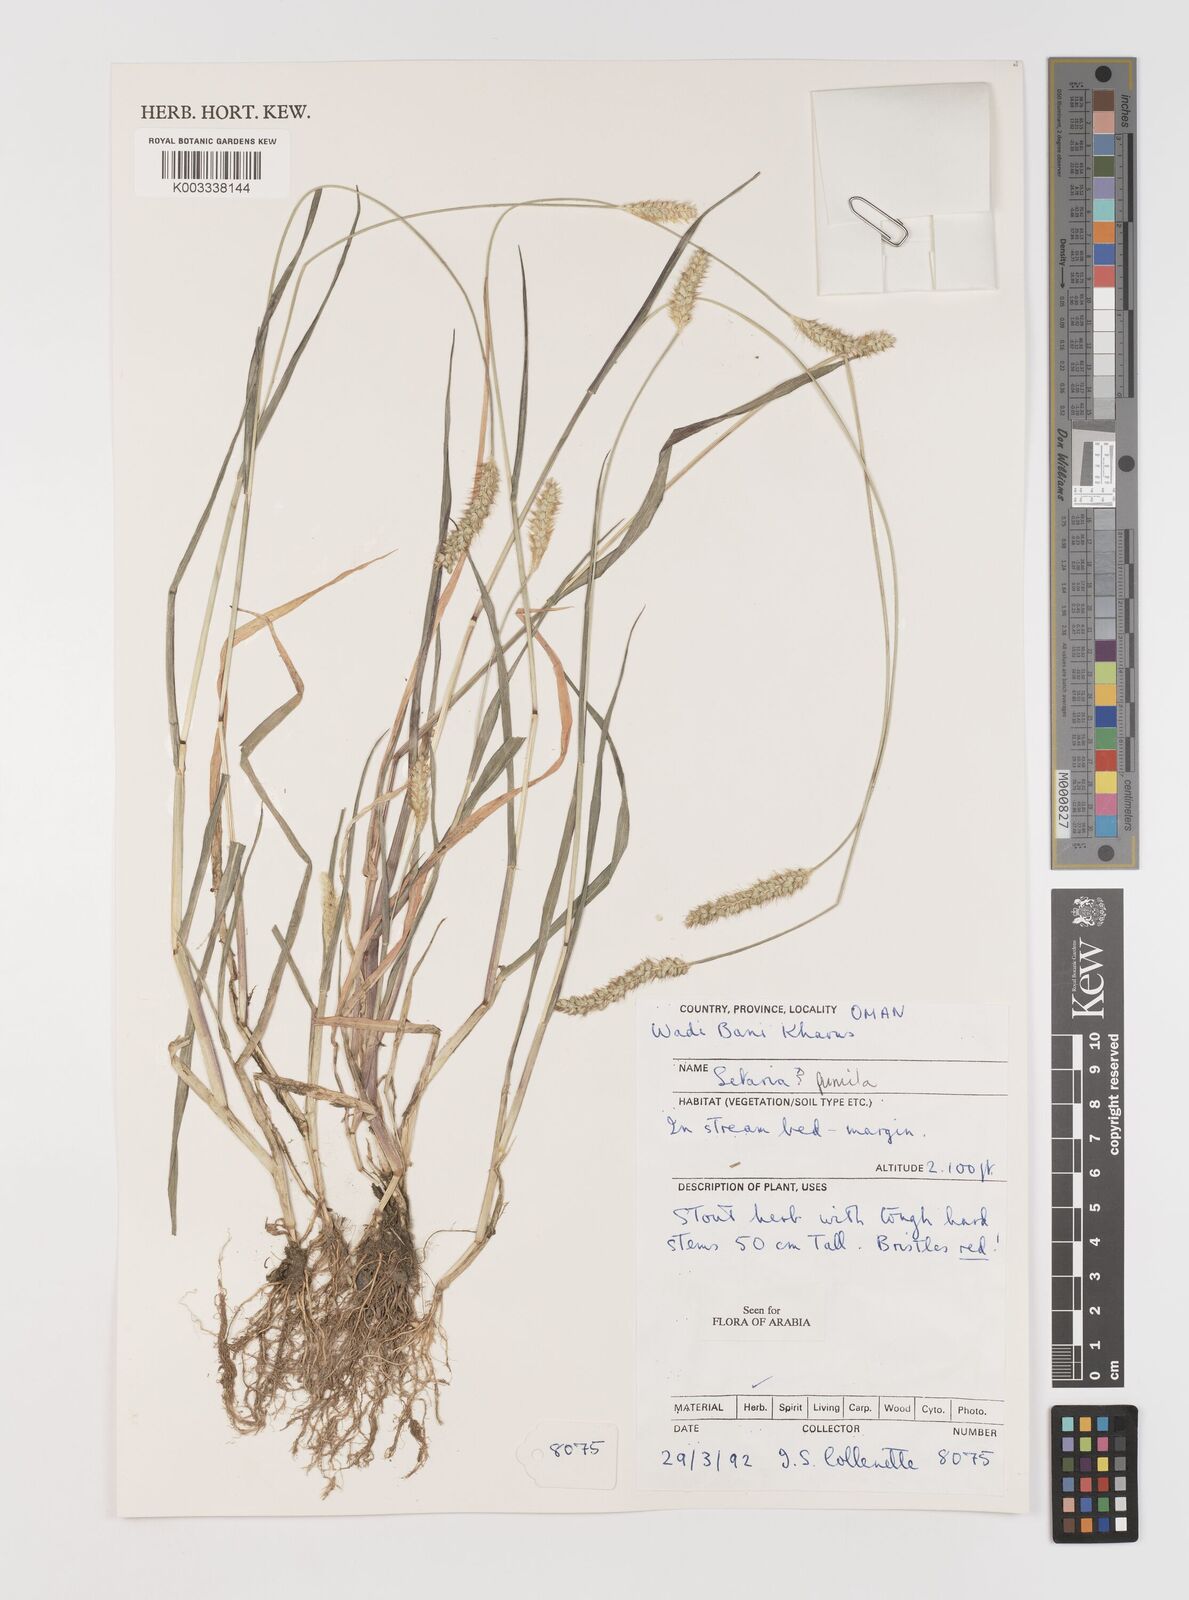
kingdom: Plantae
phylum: Tracheophyta
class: Liliopsida
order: Poales
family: Poaceae
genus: Setaria
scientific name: Setaria pumila
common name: Yellow bristle-grass
